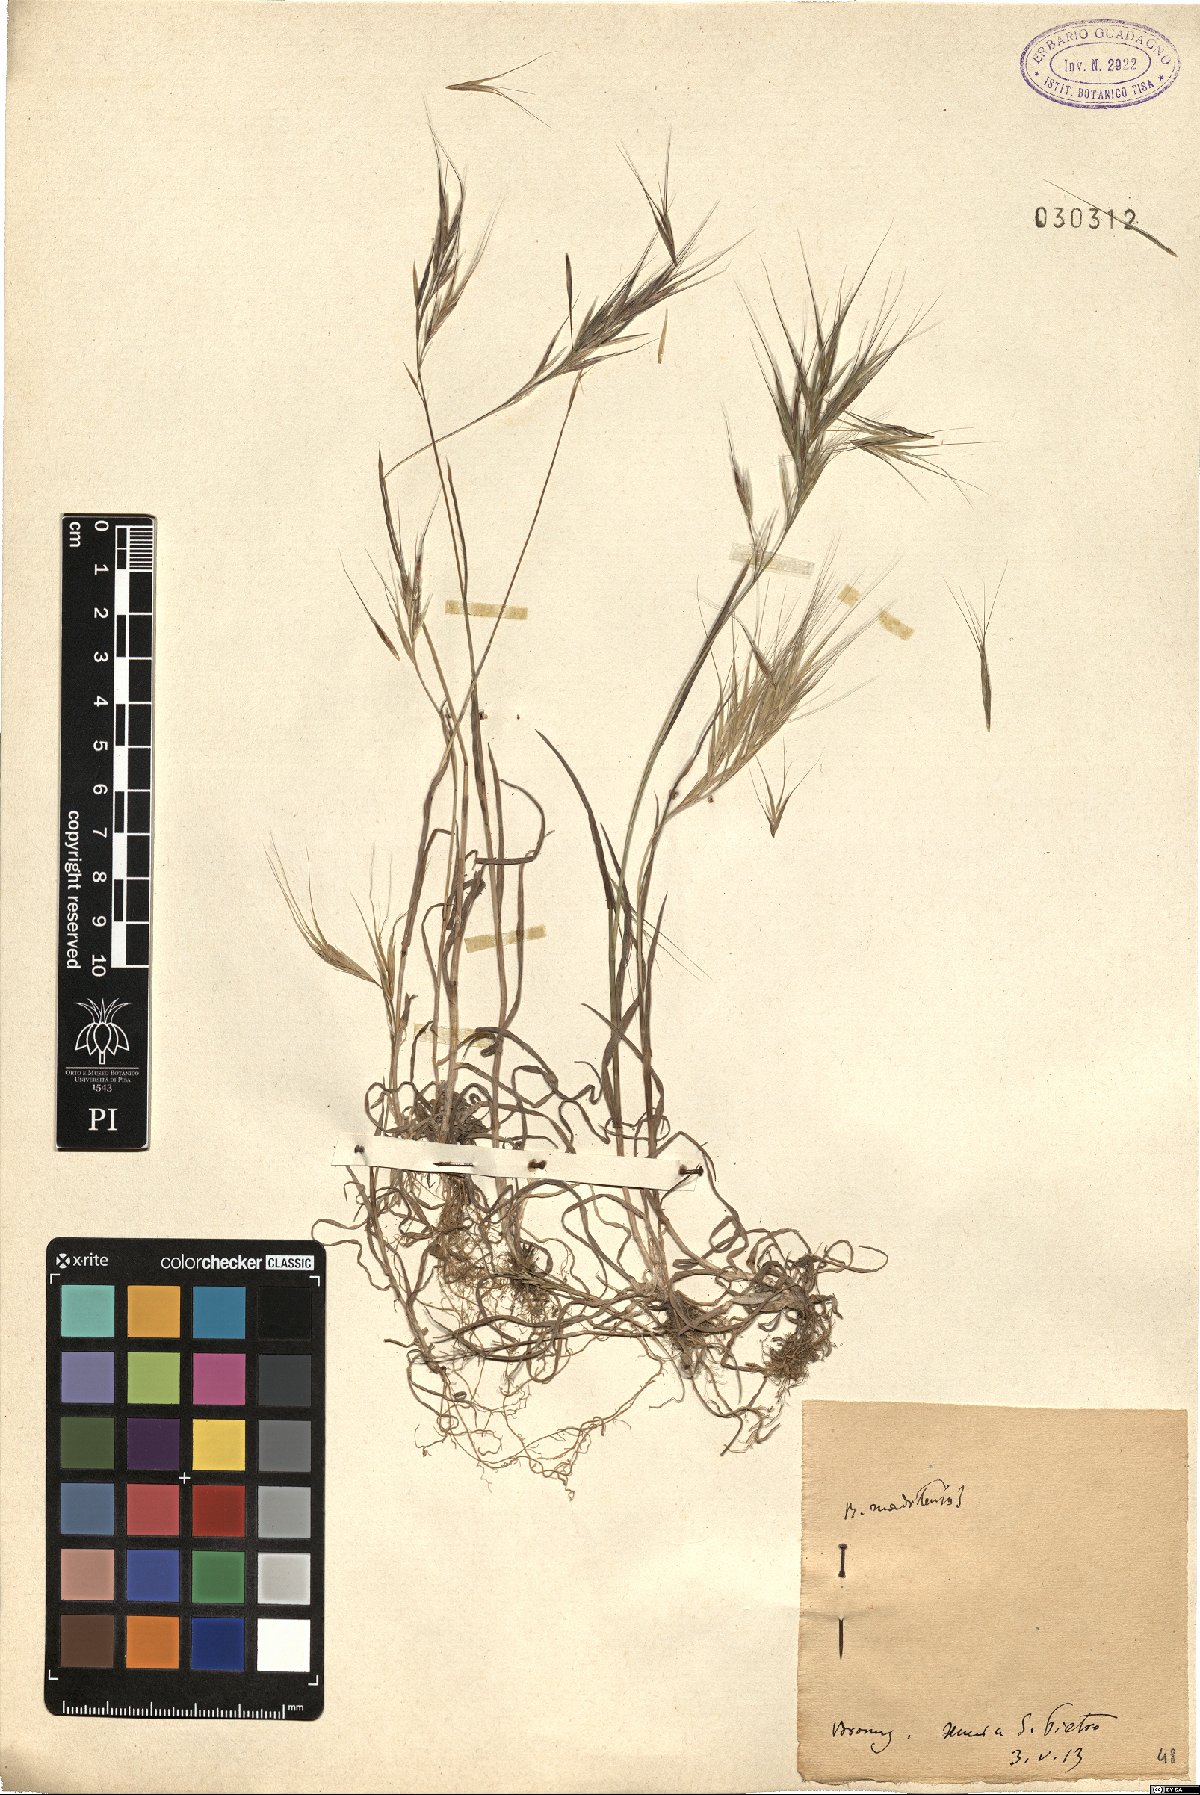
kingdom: Plantae
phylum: Tracheophyta
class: Liliopsida
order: Poales
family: Poaceae
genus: Bromus
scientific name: Bromus madritensis
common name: Compact brome
